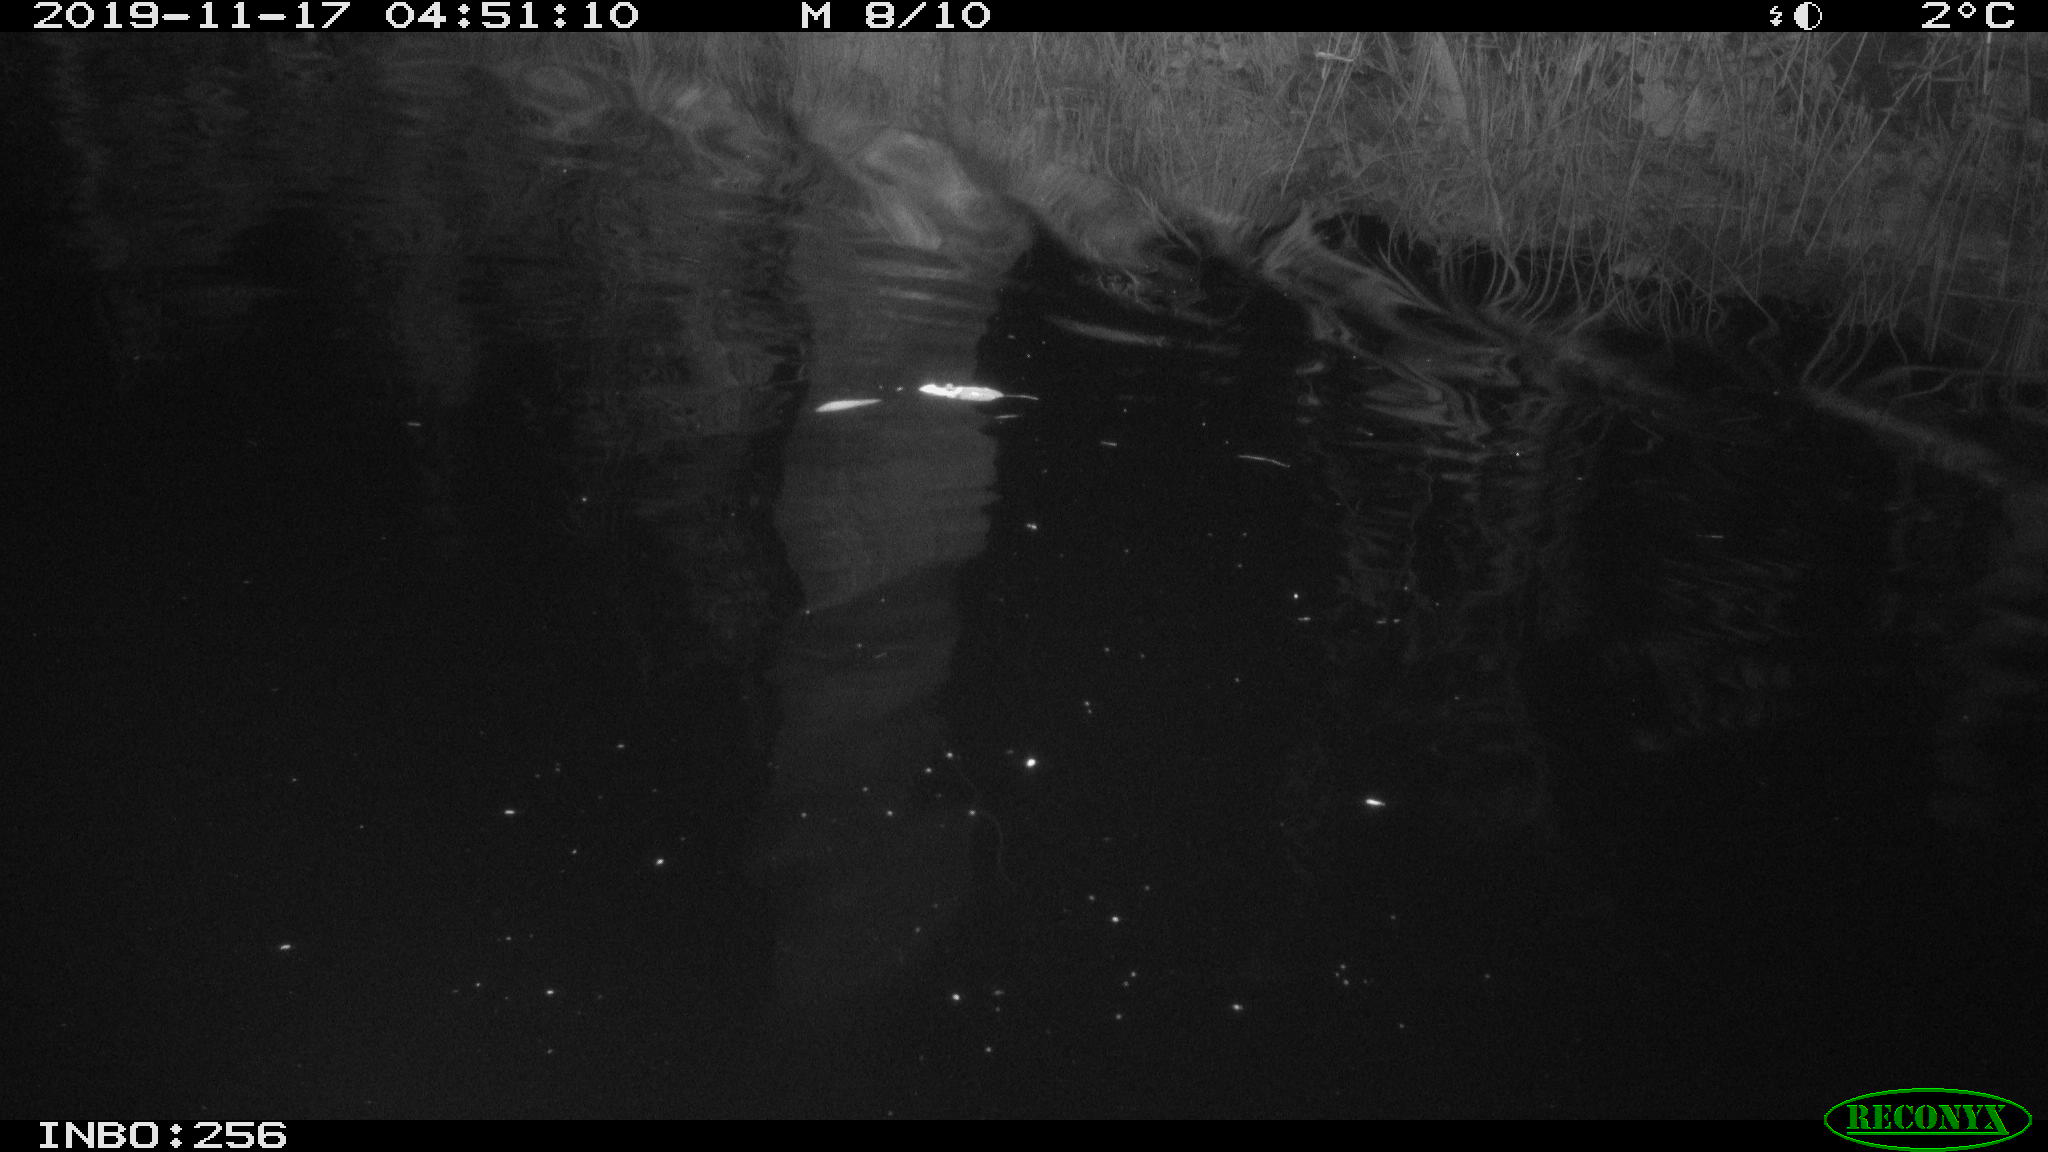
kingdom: Animalia
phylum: Chordata
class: Mammalia
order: Rodentia
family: Cricetidae
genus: Ondatra
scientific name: Ondatra zibethicus
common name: Muskrat
